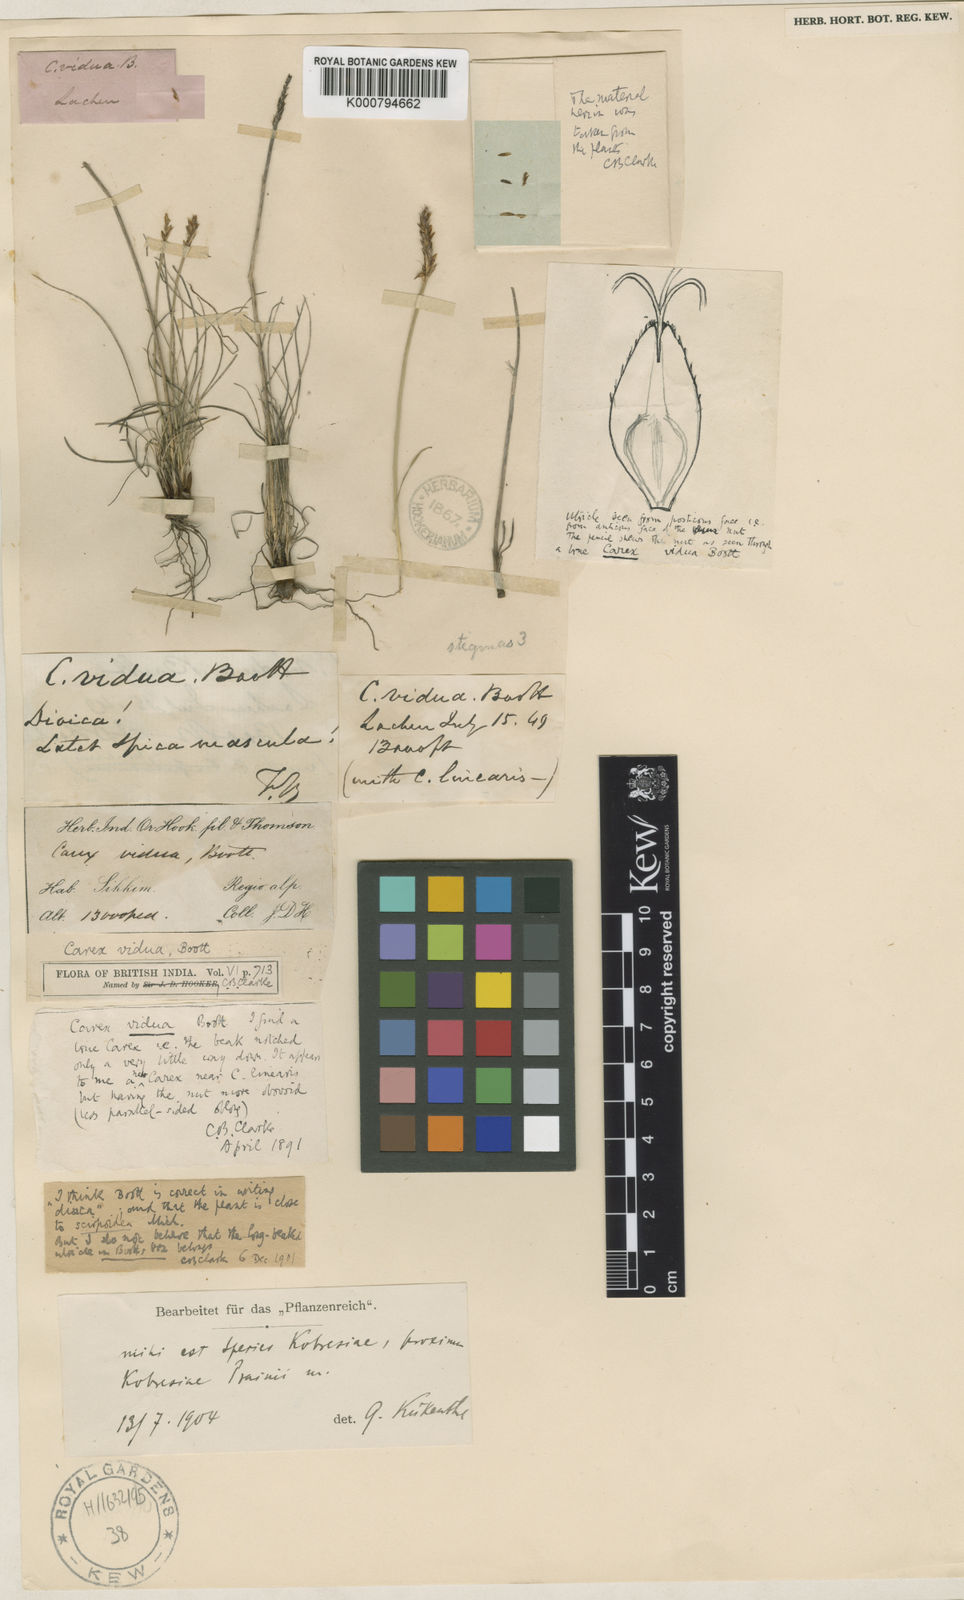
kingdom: Plantae
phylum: Tracheophyta
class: Liliopsida
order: Poales
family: Cyperaceae
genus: Carex
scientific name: Carex
